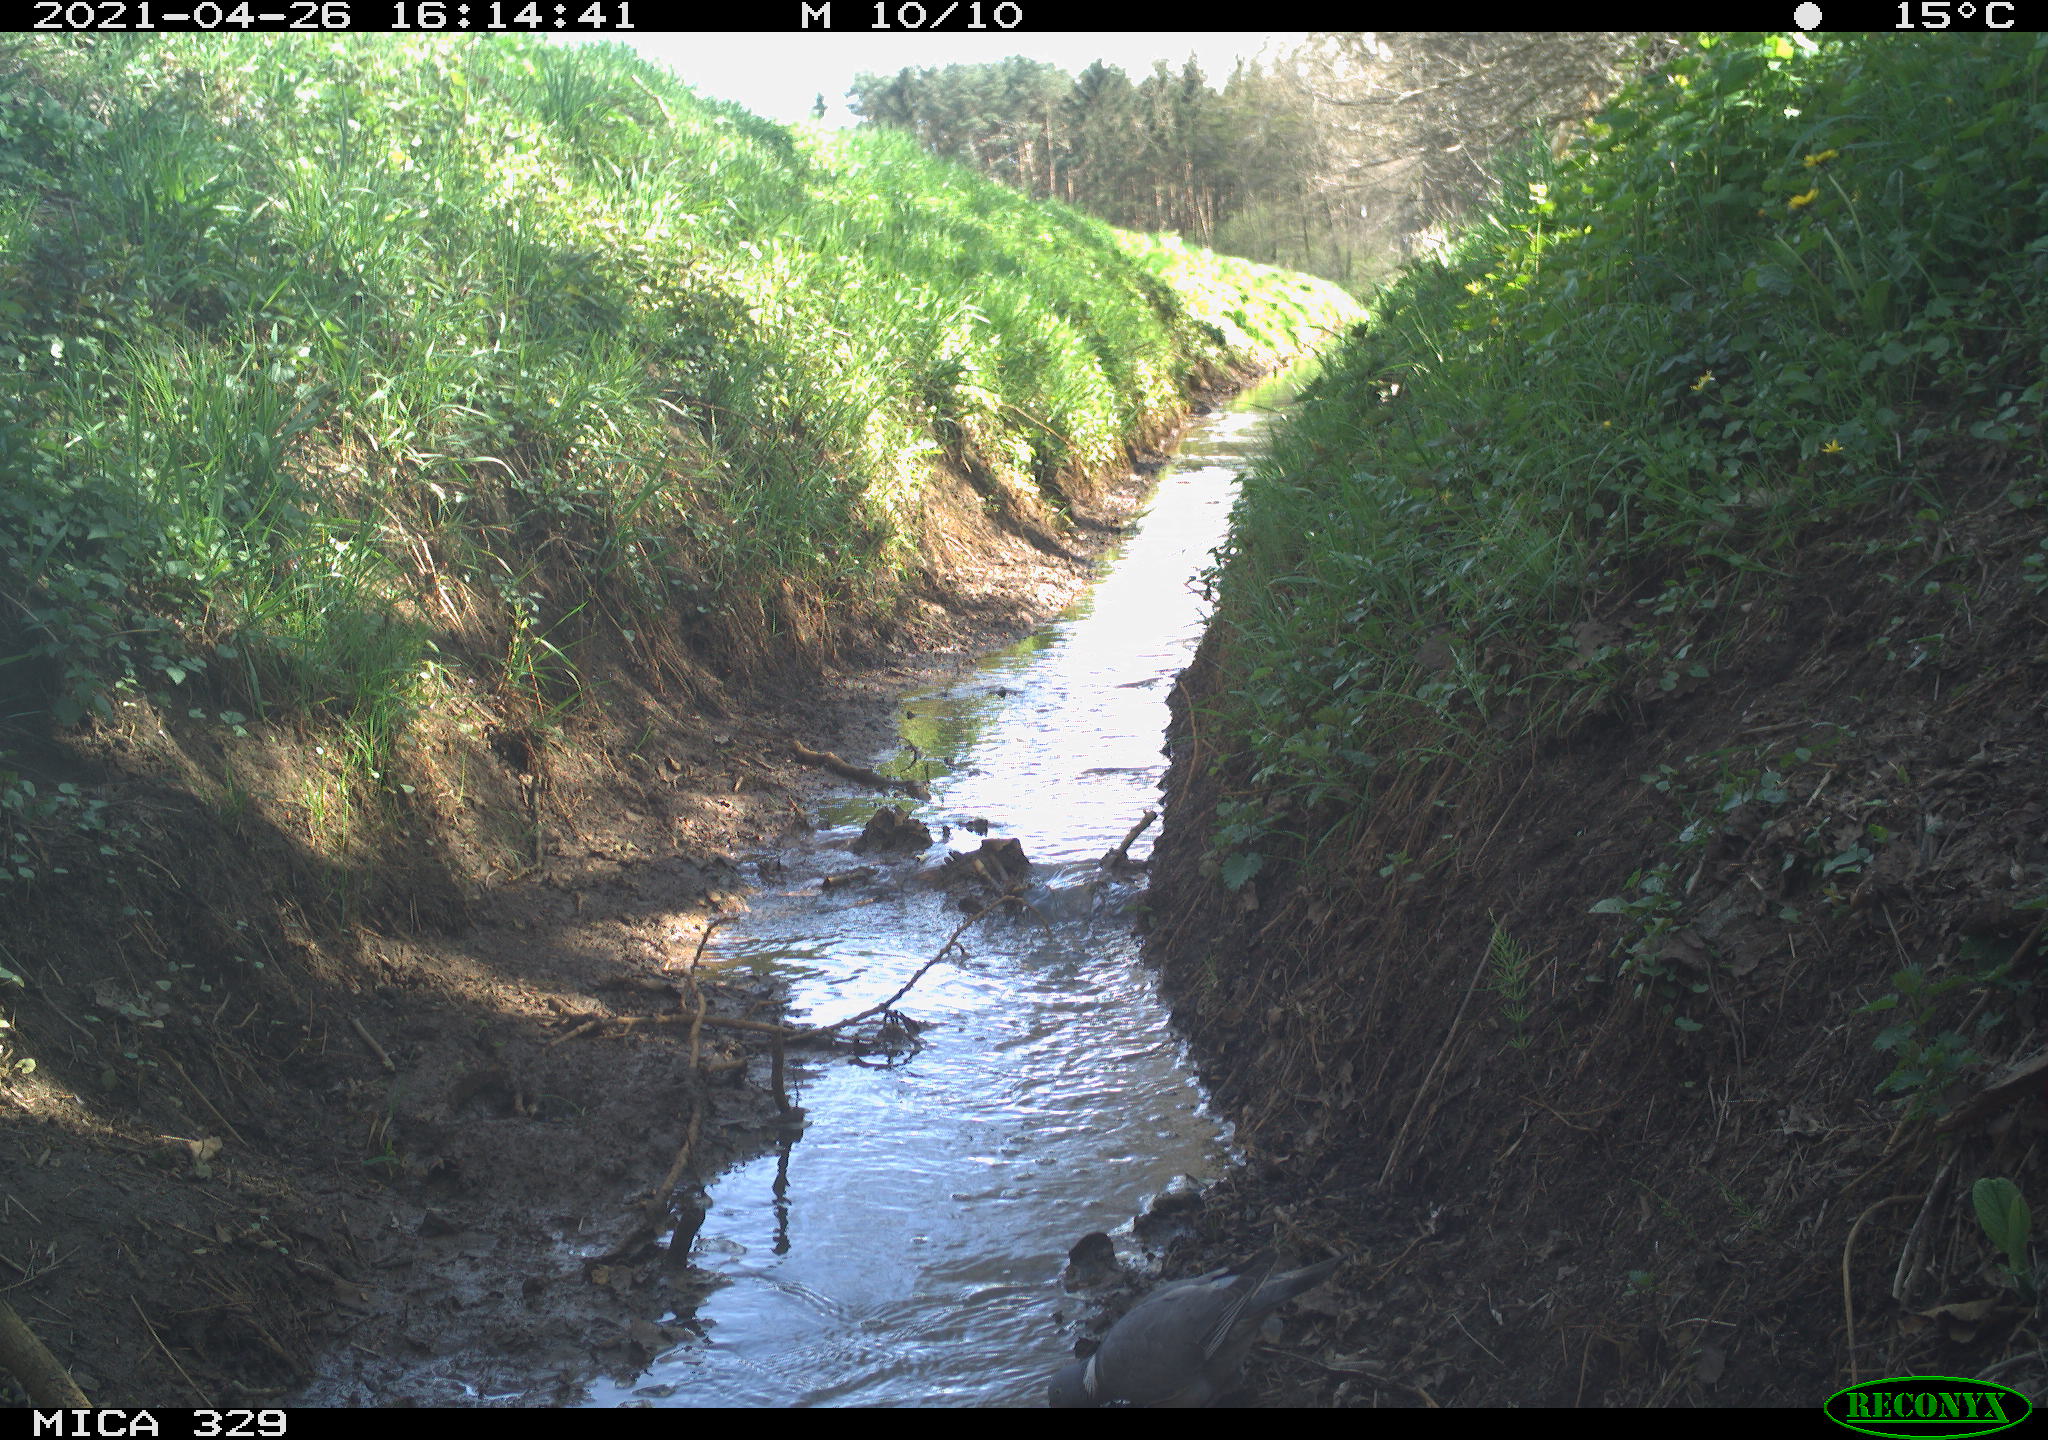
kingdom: Animalia
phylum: Chordata
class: Aves
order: Columbiformes
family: Columbidae
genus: Columba
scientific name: Columba palumbus
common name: Common wood pigeon
